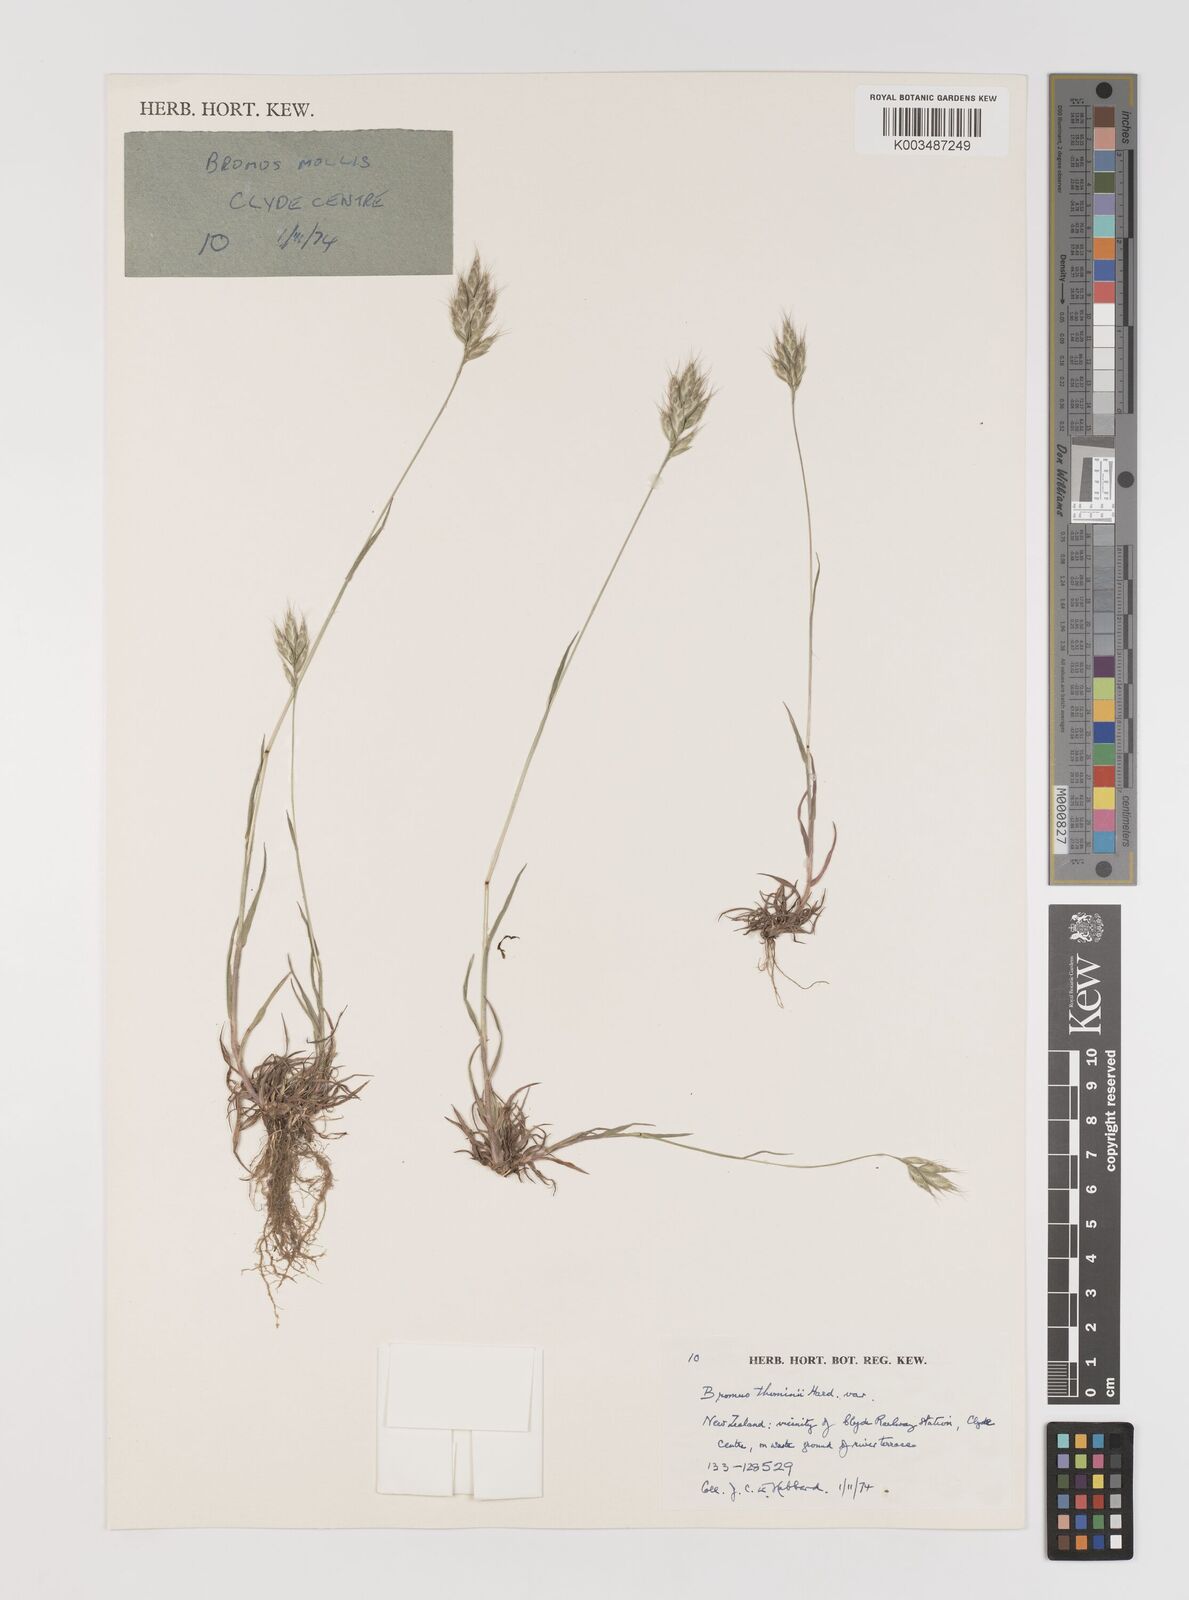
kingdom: Plantae
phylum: Tracheophyta
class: Liliopsida
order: Poales
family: Poaceae
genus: Bromus
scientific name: Bromus hordeaceus
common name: Soft brome
